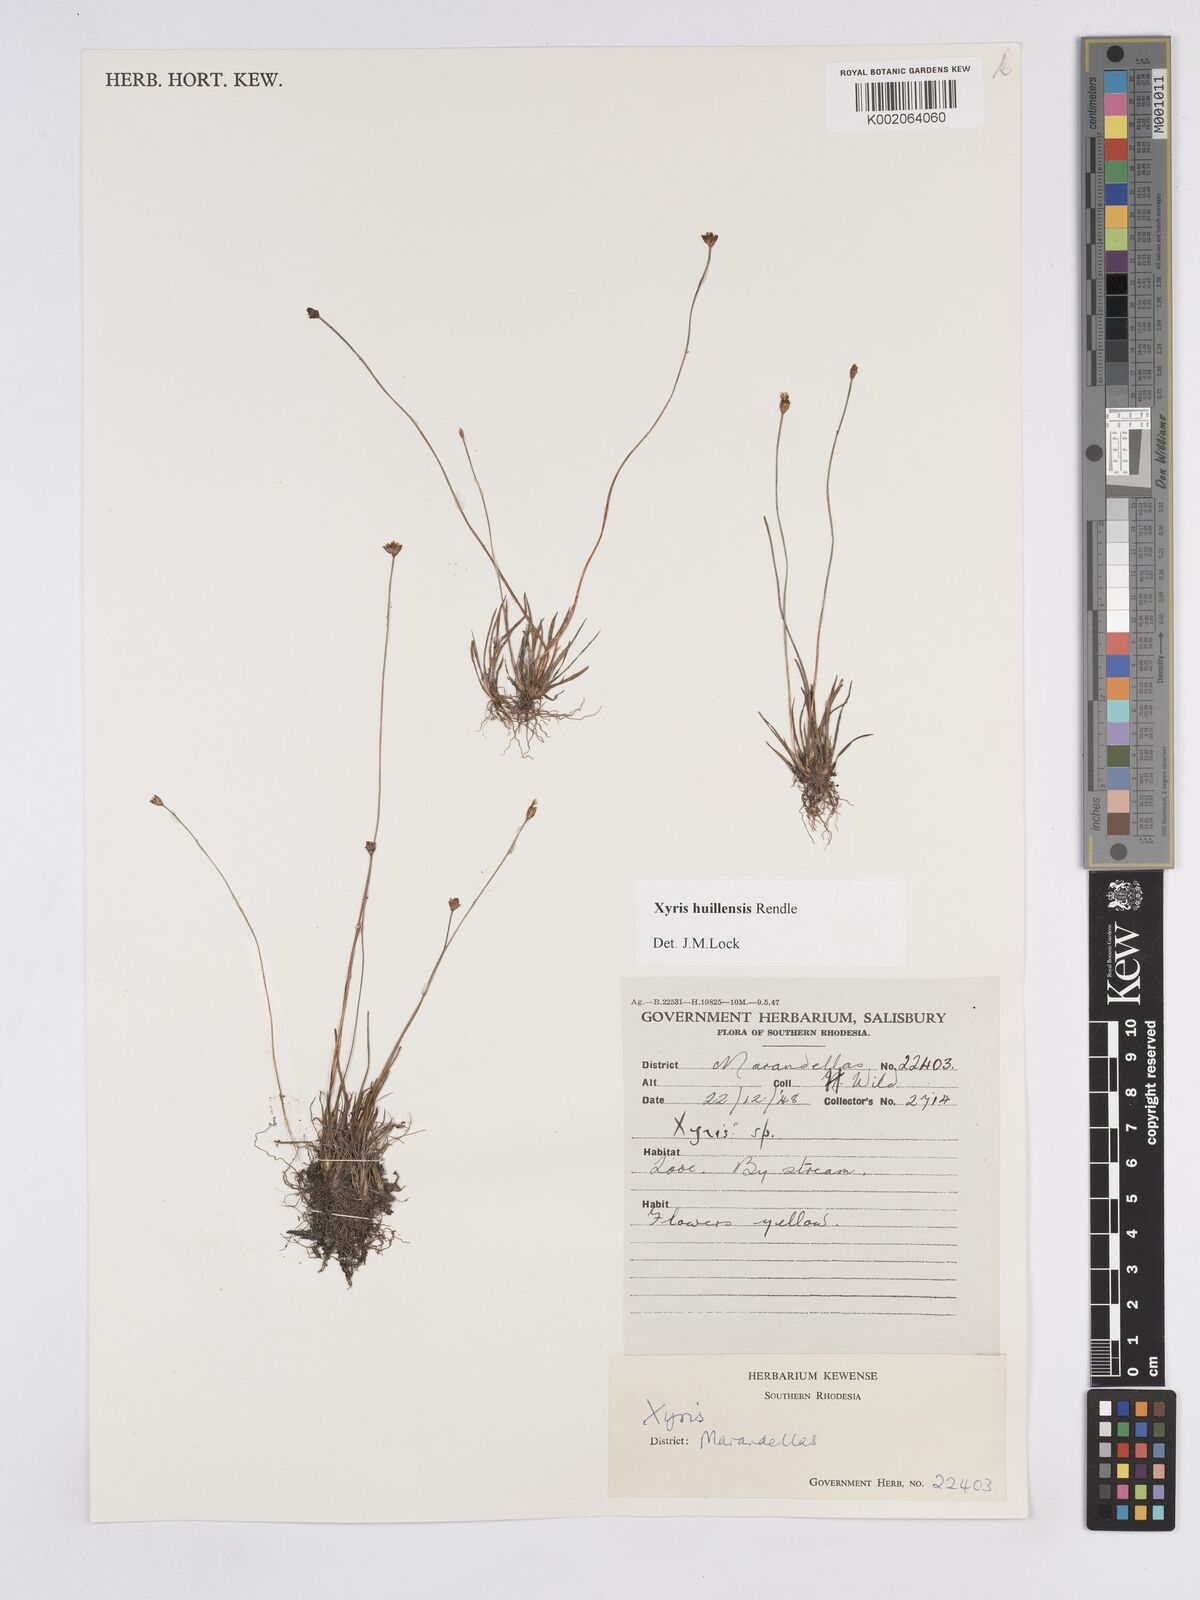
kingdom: Plantae
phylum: Tracheophyta
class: Liliopsida
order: Poales
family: Xyridaceae
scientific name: Xyridaceae
